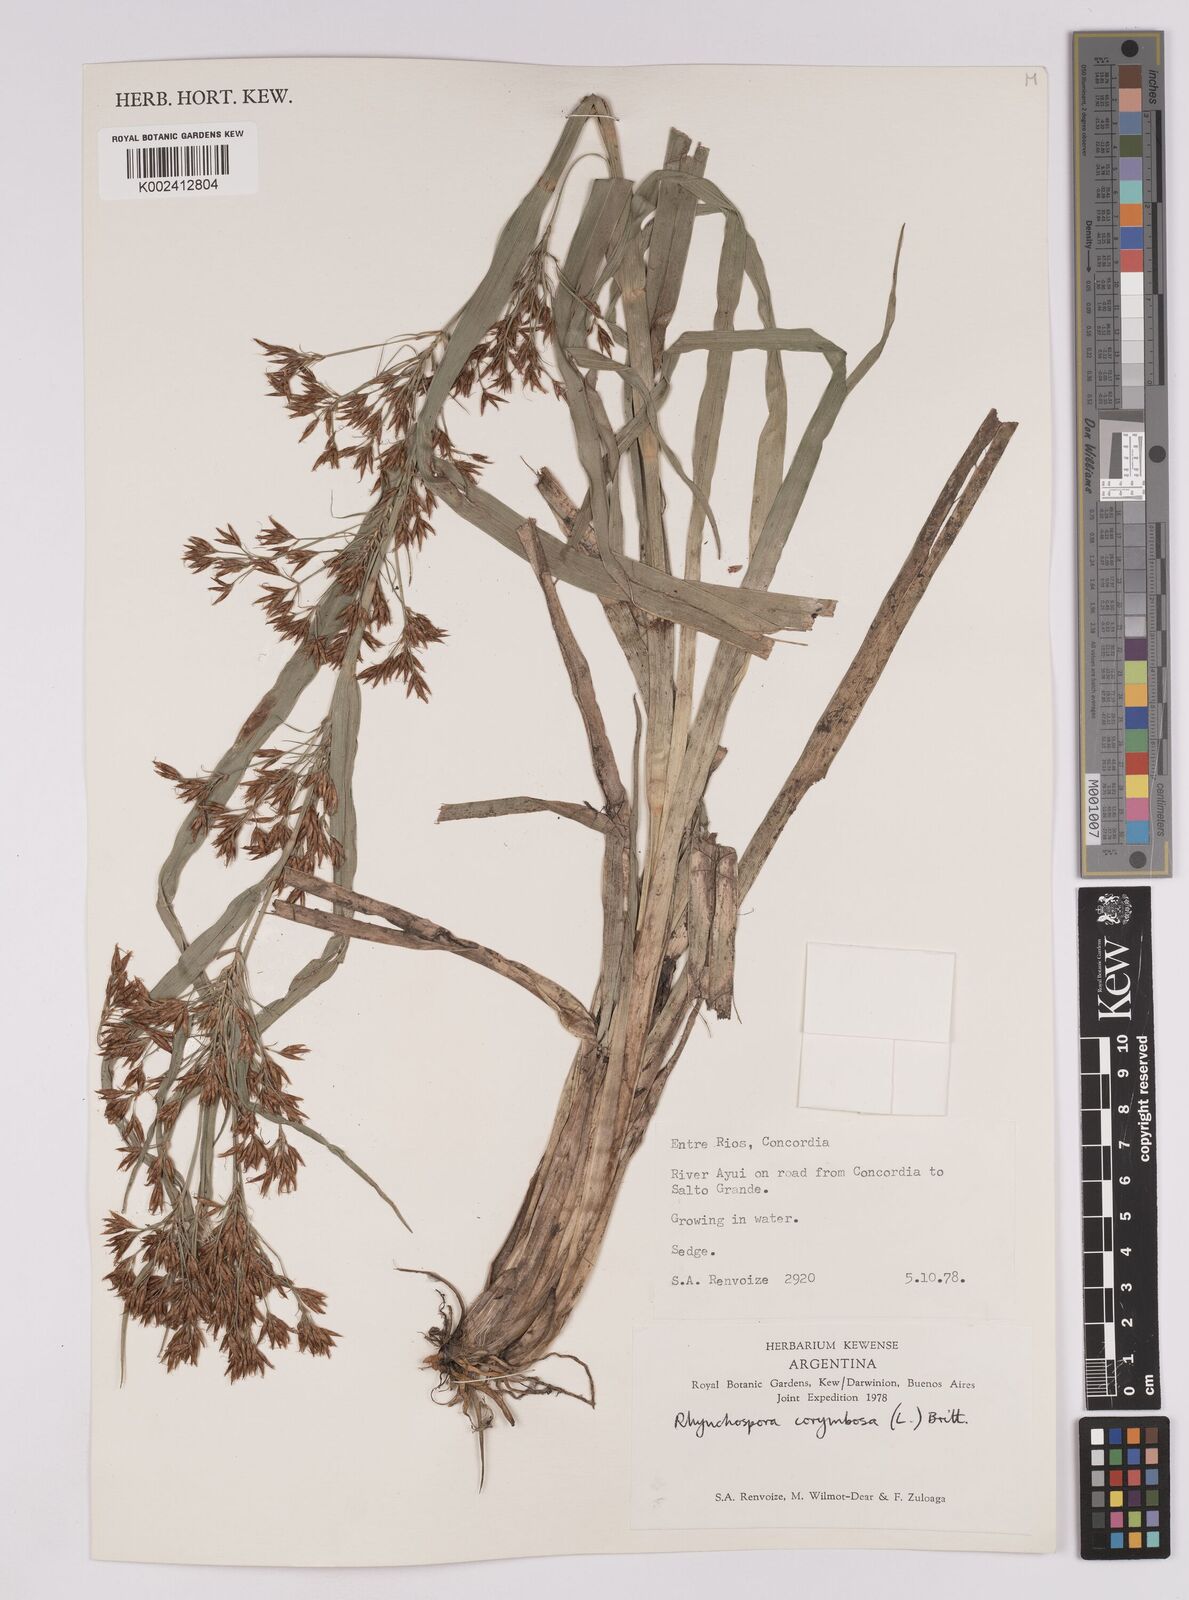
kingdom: Plantae
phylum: Tracheophyta
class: Liliopsida
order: Poales
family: Cyperaceae
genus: Rhynchospora
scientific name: Rhynchospora corymbosa
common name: Golden beak sedge
